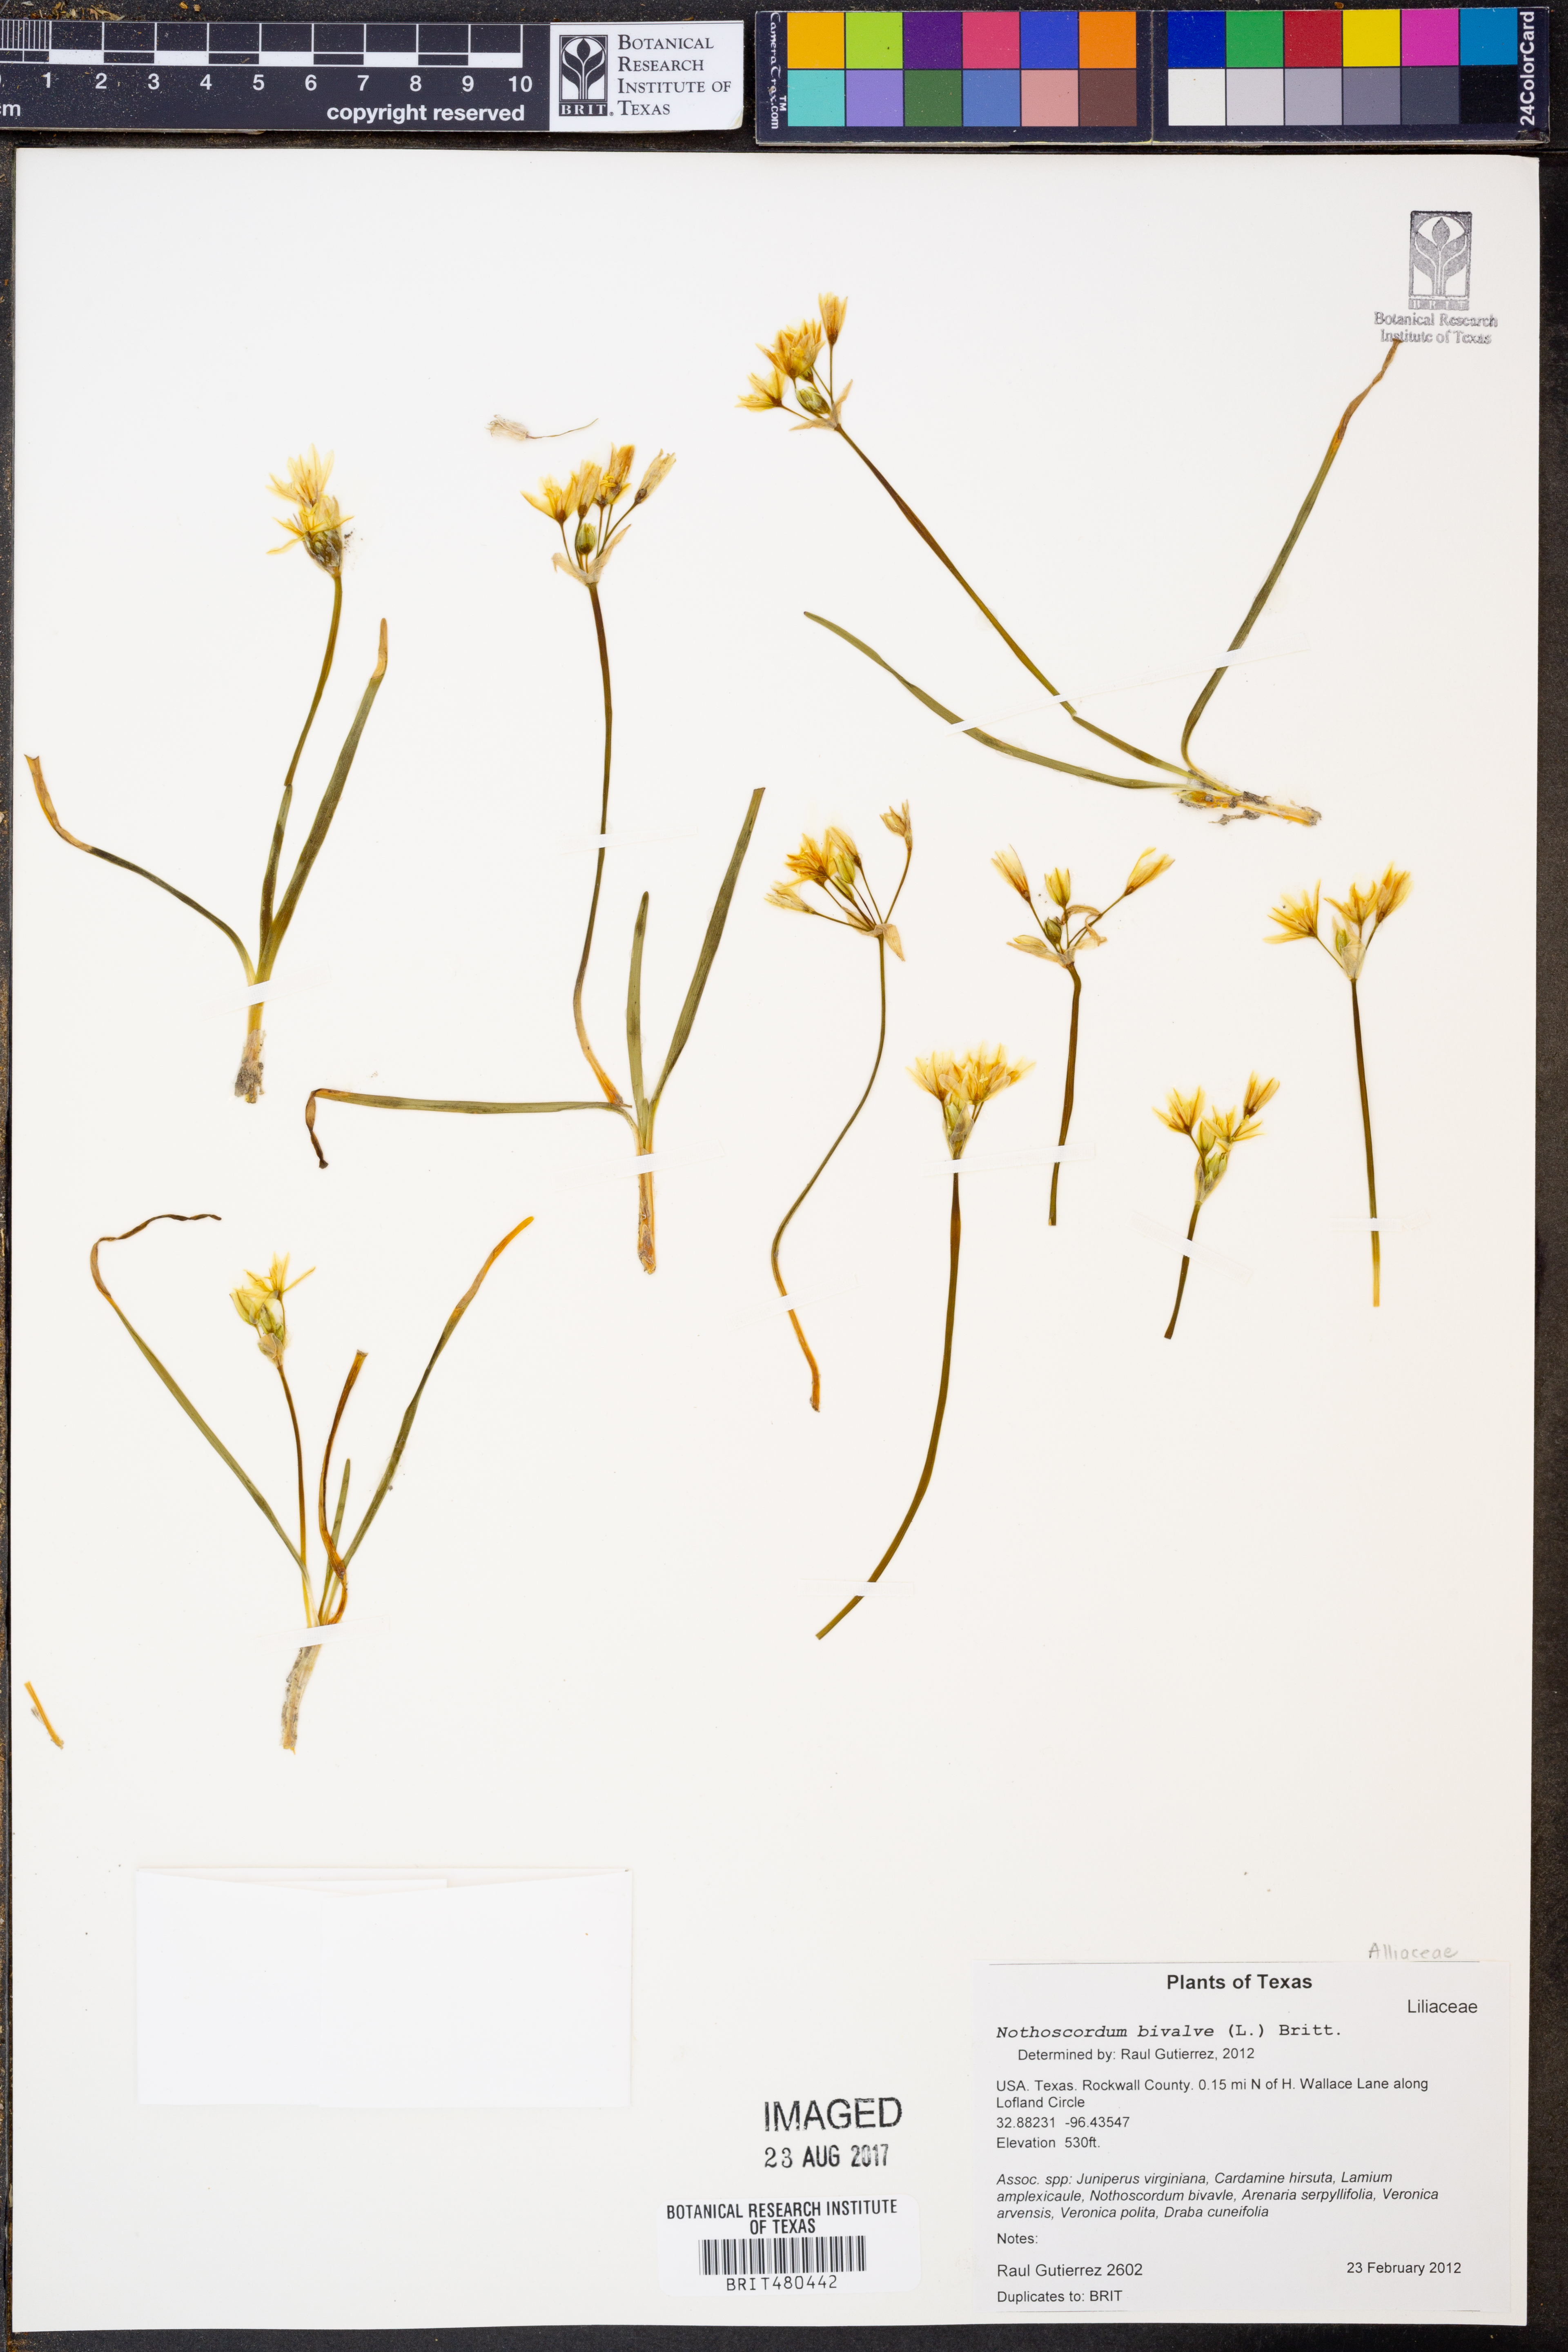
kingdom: Plantae
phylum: Tracheophyta
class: Liliopsida
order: Asparagales
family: Amaryllidaceae
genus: Nothoscordum
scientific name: Nothoscordum bivalve
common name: Crow-poison
